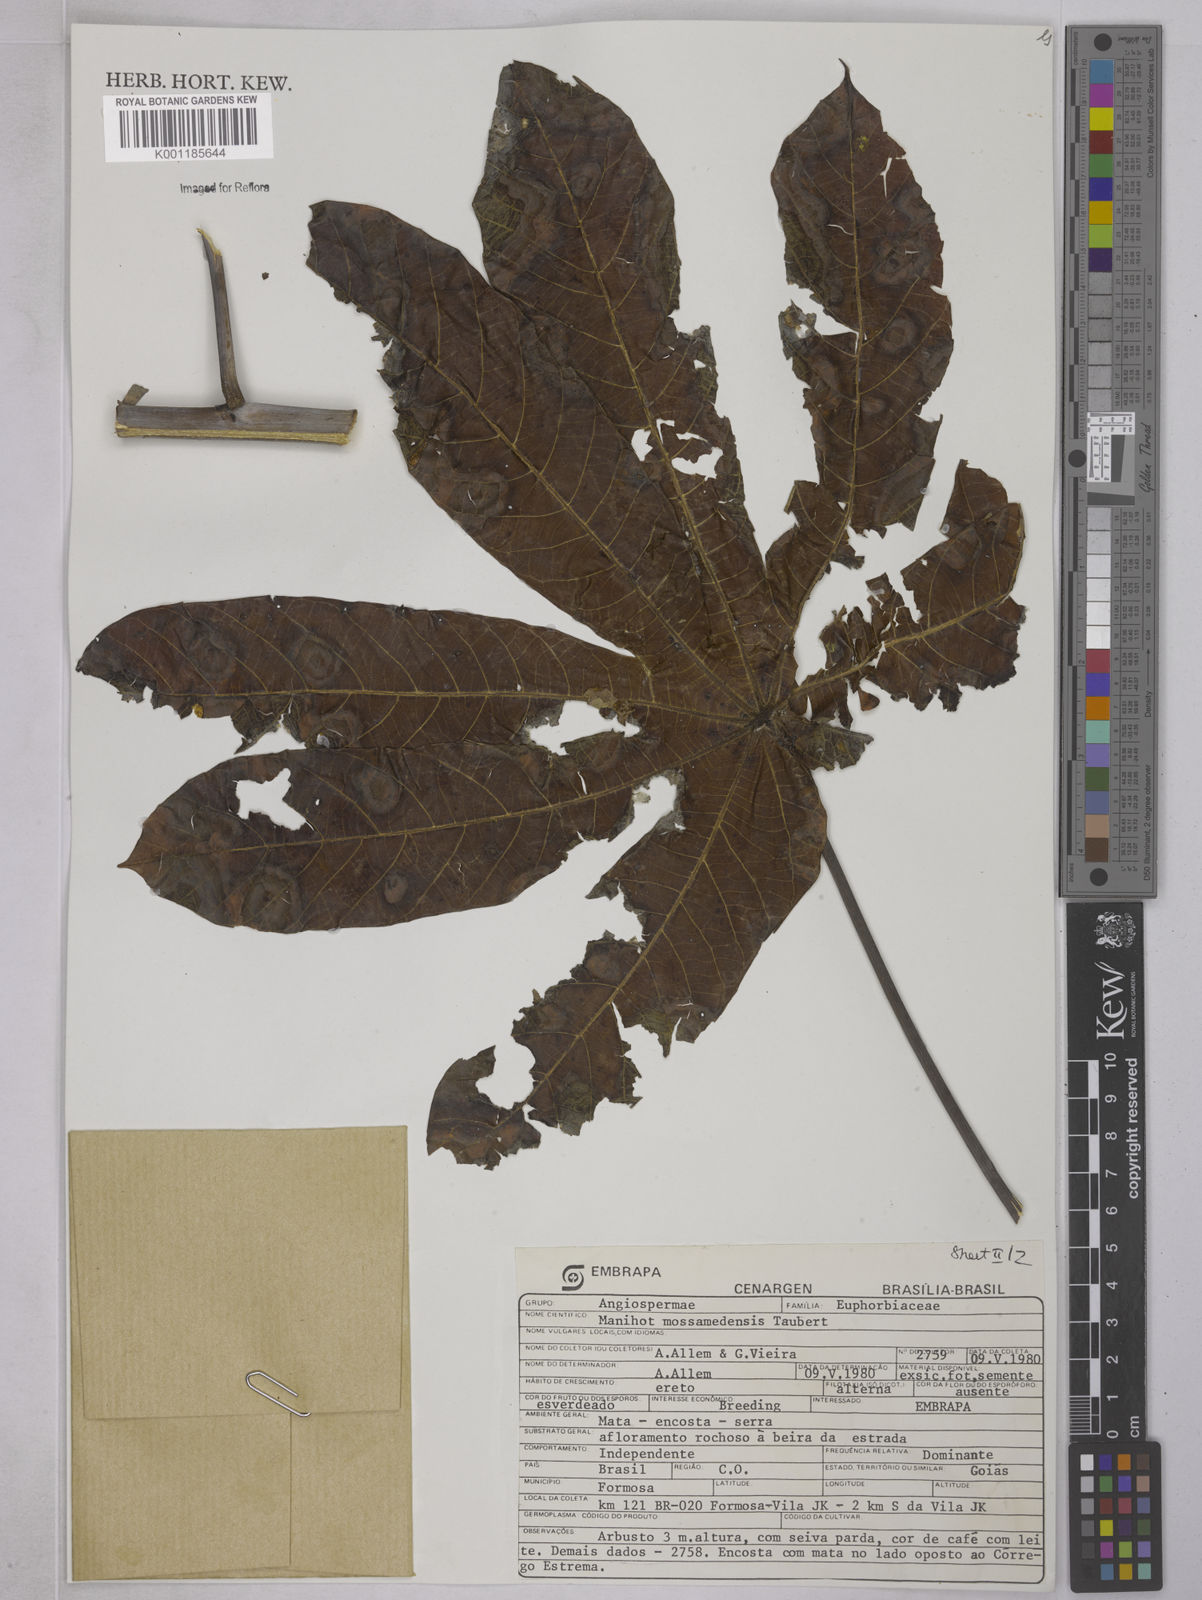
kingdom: Plantae
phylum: Tracheophyta
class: Magnoliopsida
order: Malpighiales
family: Euphorbiaceae
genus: Manihot
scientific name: Manihot cecropiifolia
